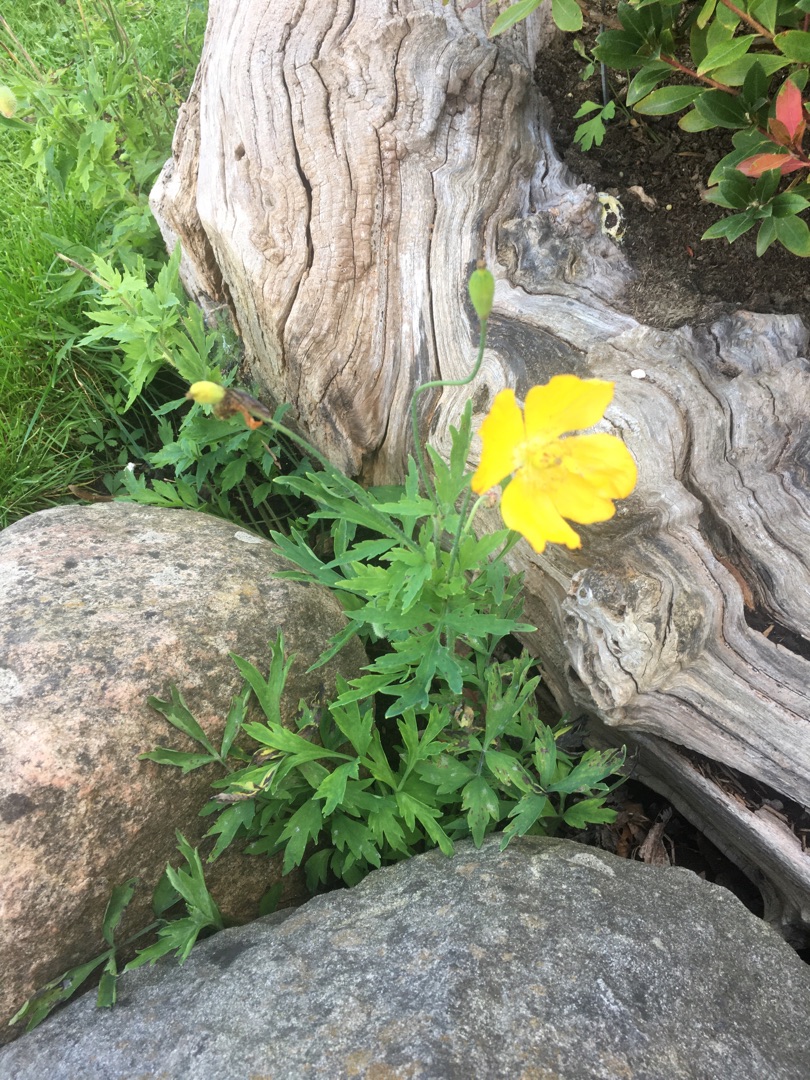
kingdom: Plantae
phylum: Tracheophyta
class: Magnoliopsida
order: Ranunculales
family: Papaveraceae
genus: Papaver
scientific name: Papaver cambricum
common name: Skov-valmue
